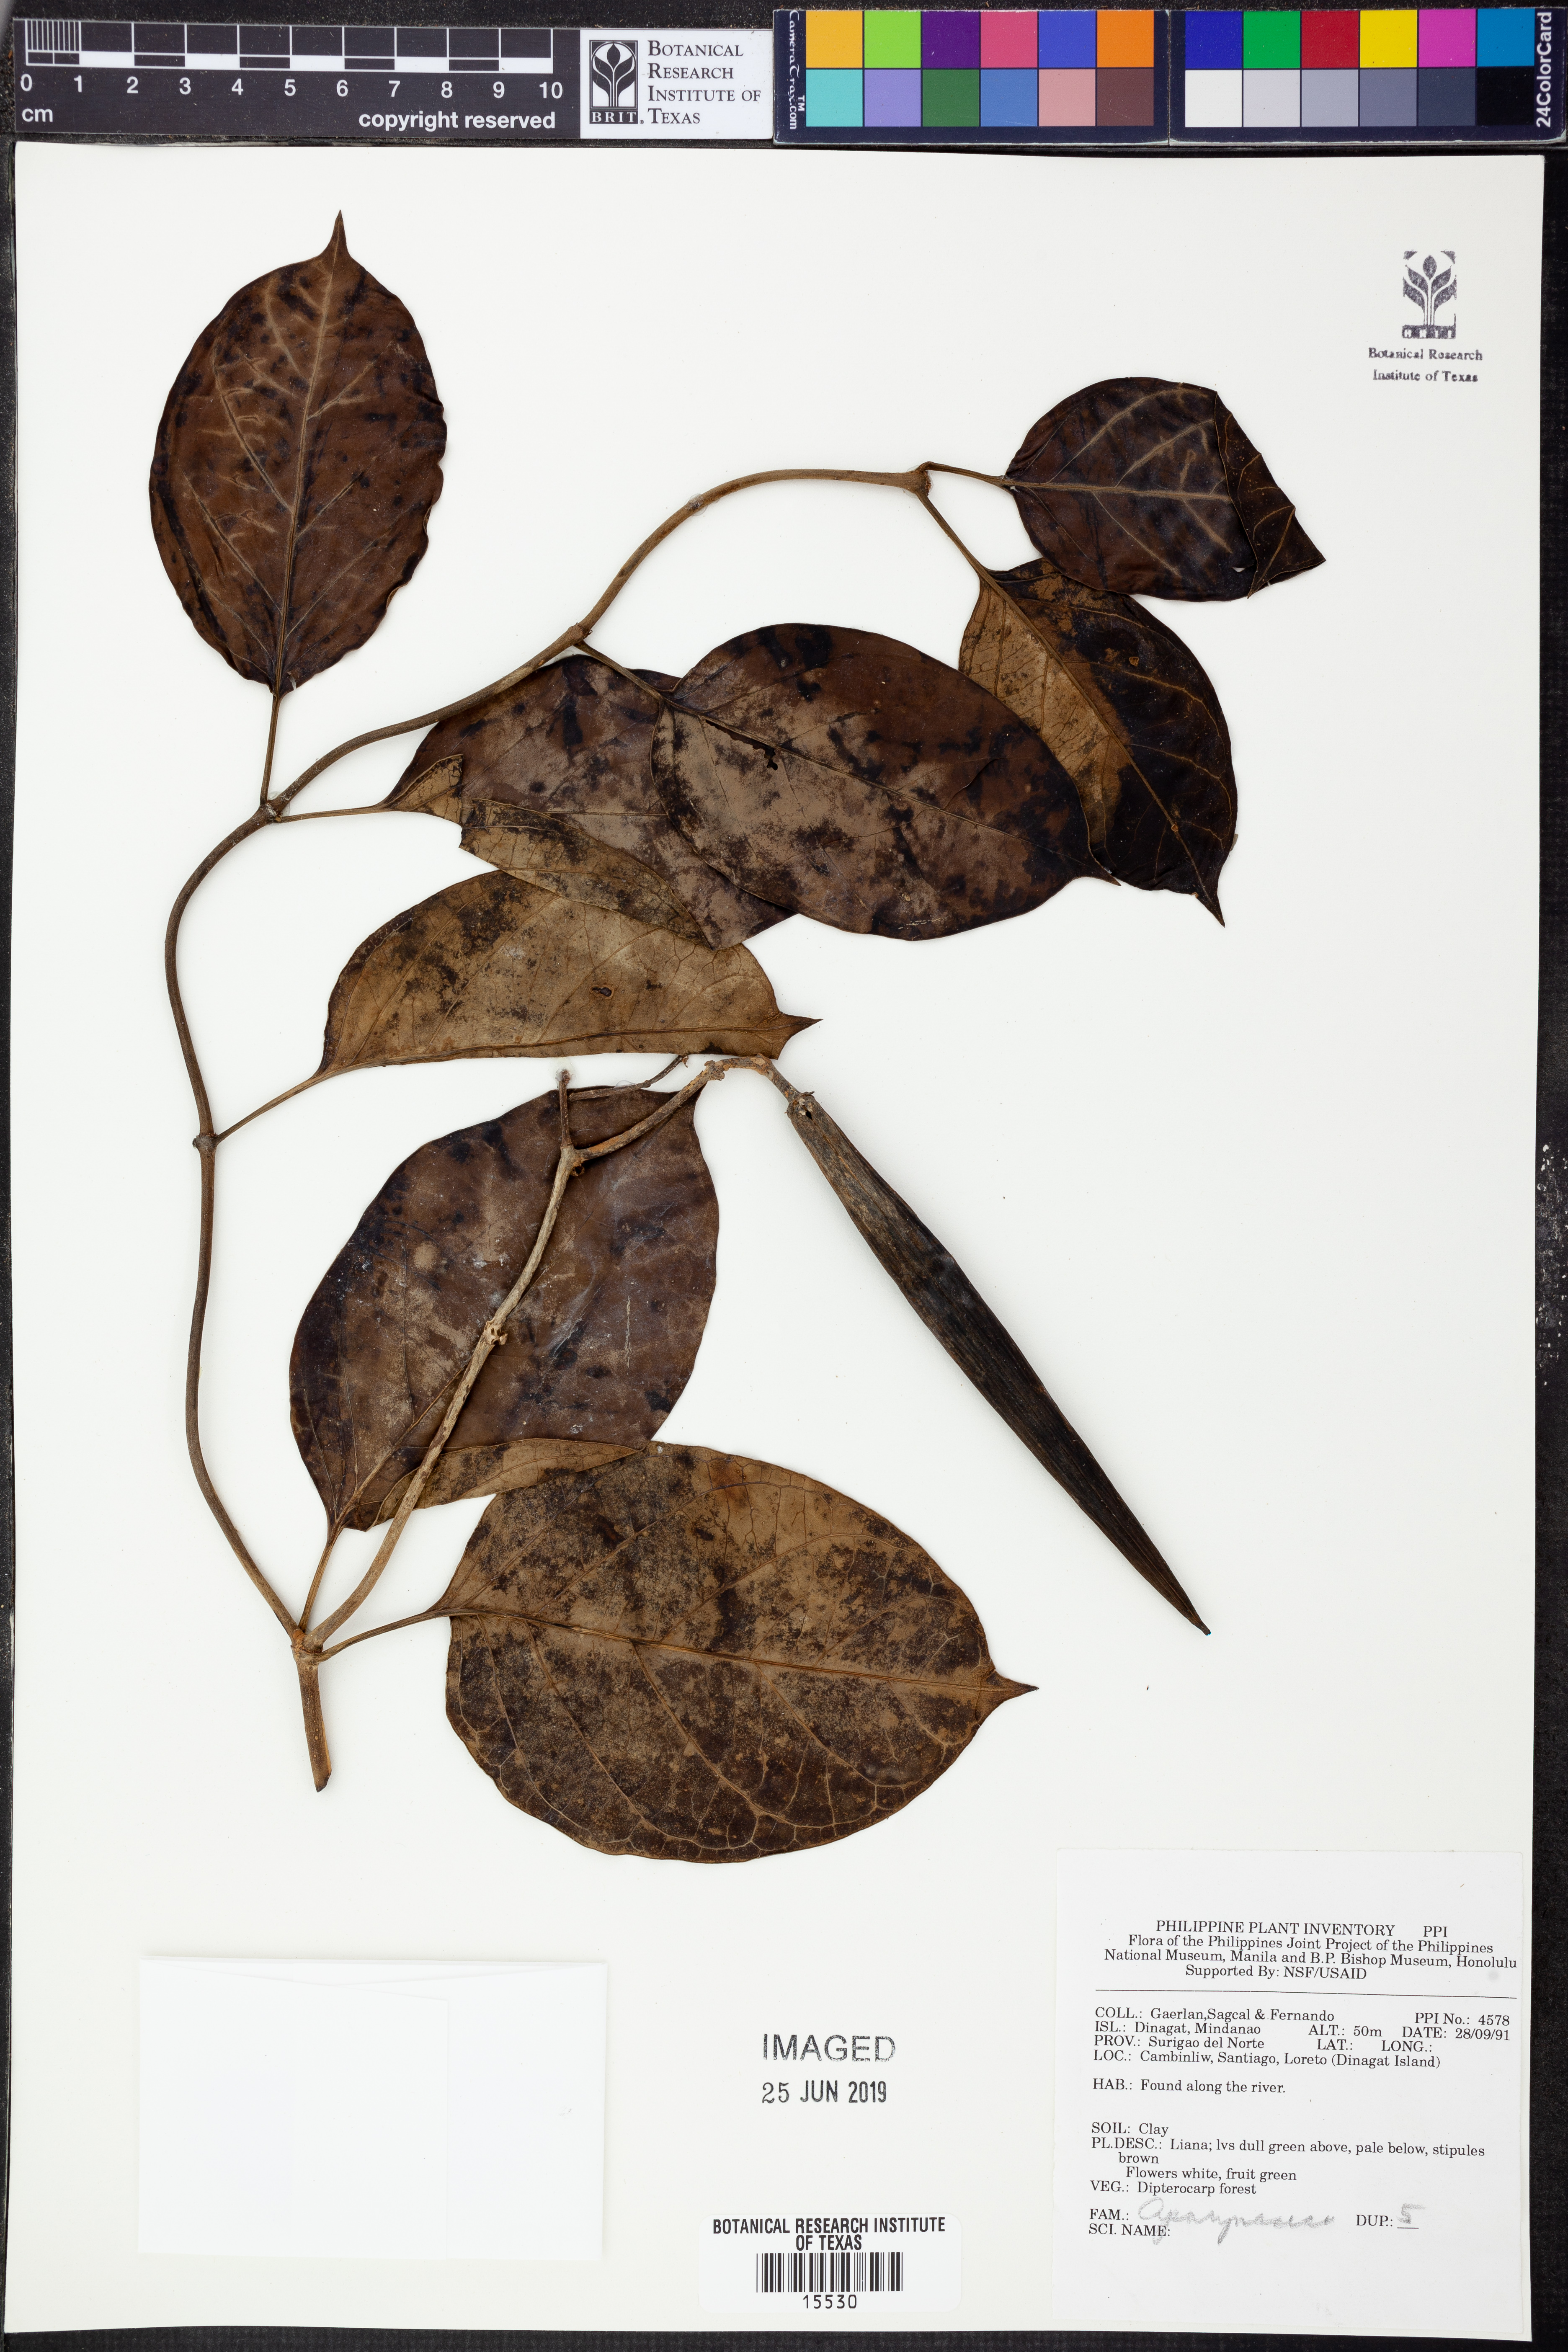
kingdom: Plantae
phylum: Tracheophyta
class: Magnoliopsida
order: Gentianales
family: Apocynaceae
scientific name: Apocynaceae
